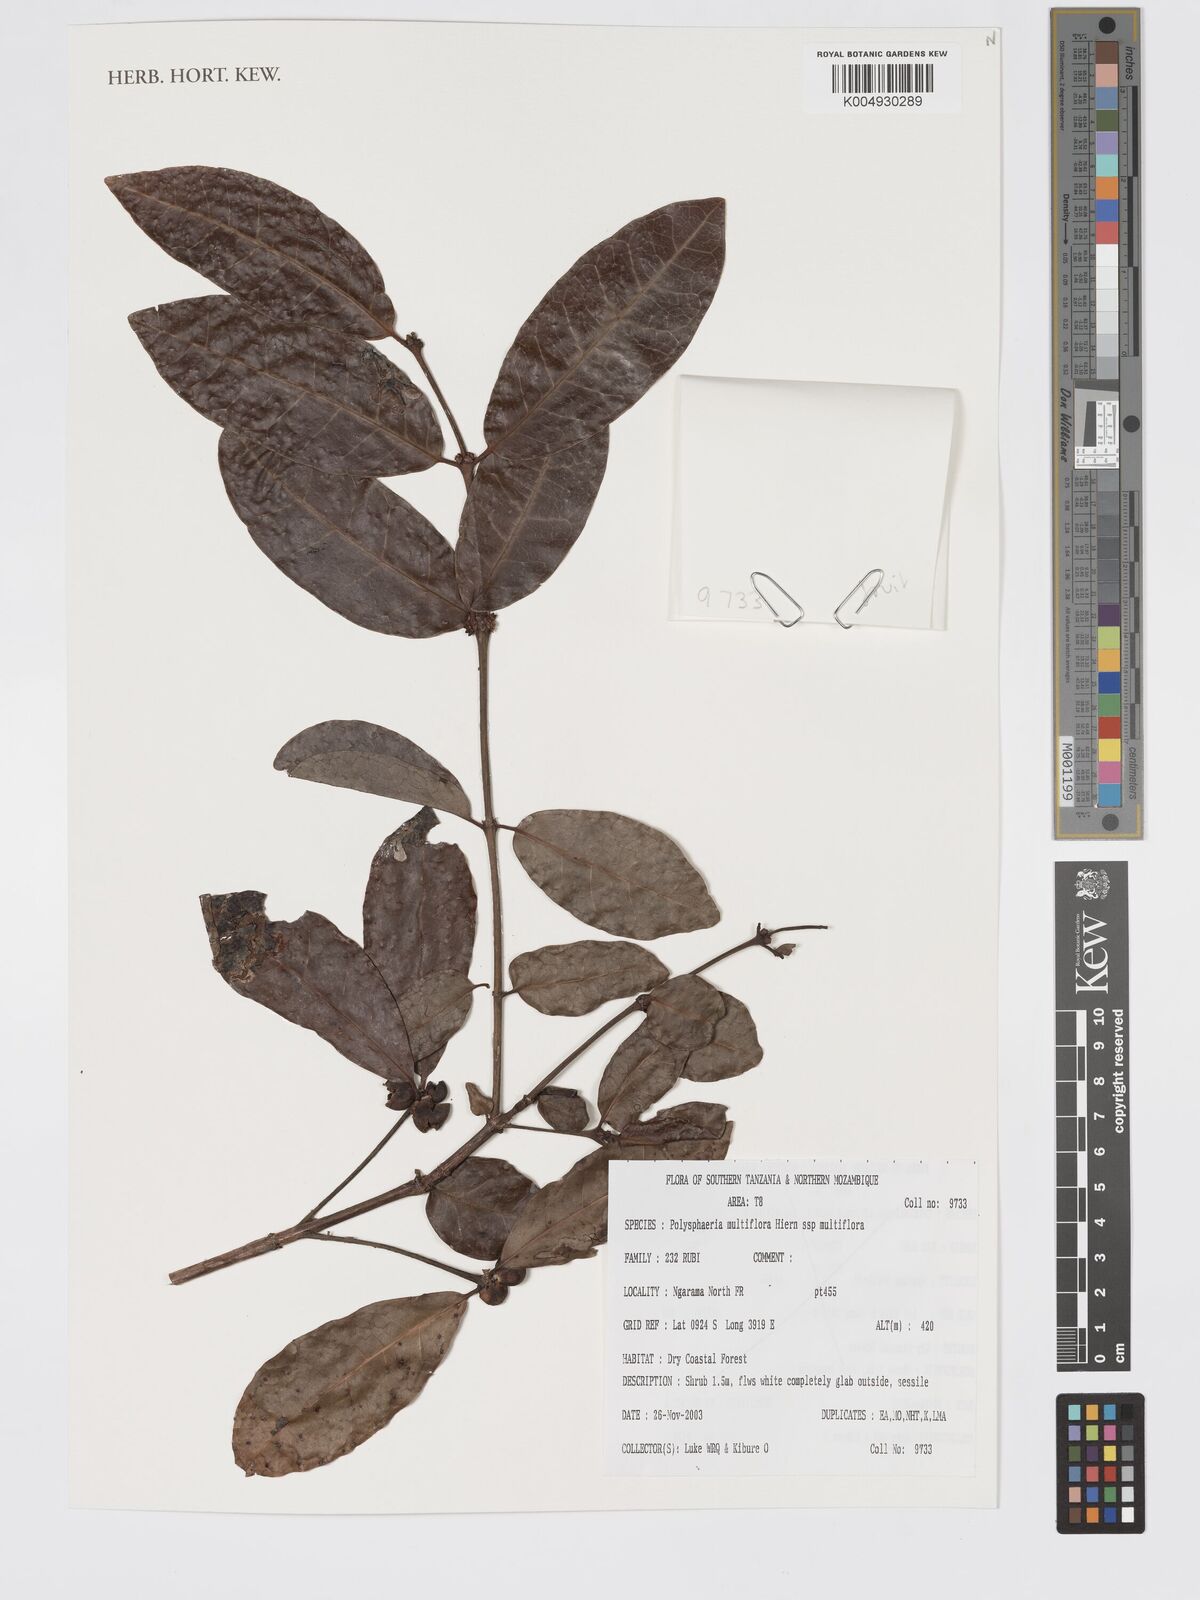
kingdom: Plantae
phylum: Tracheophyta
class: Magnoliopsida
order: Gentianales
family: Rubiaceae
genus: Polysphaeria
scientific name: Polysphaeria multiflora
